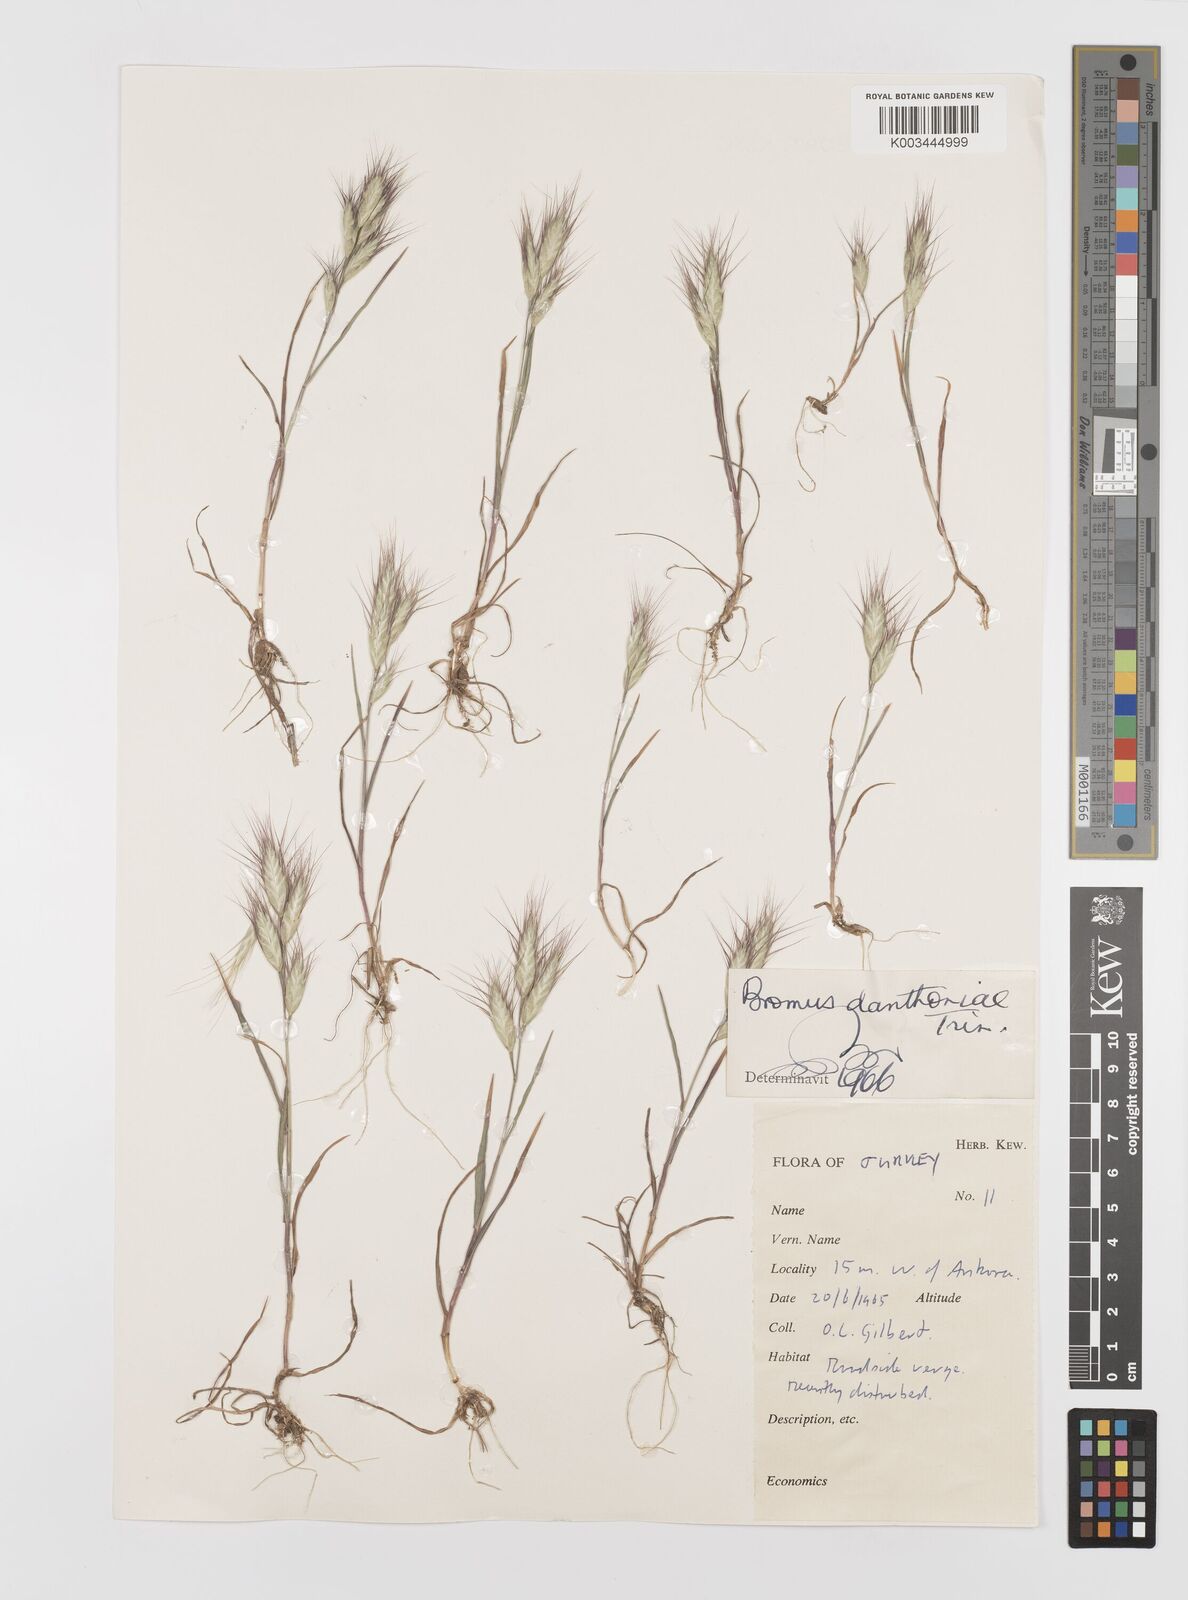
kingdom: Plantae
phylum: Tracheophyta
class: Liliopsida
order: Poales
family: Poaceae
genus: Bromus
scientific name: Bromus danthoniae
